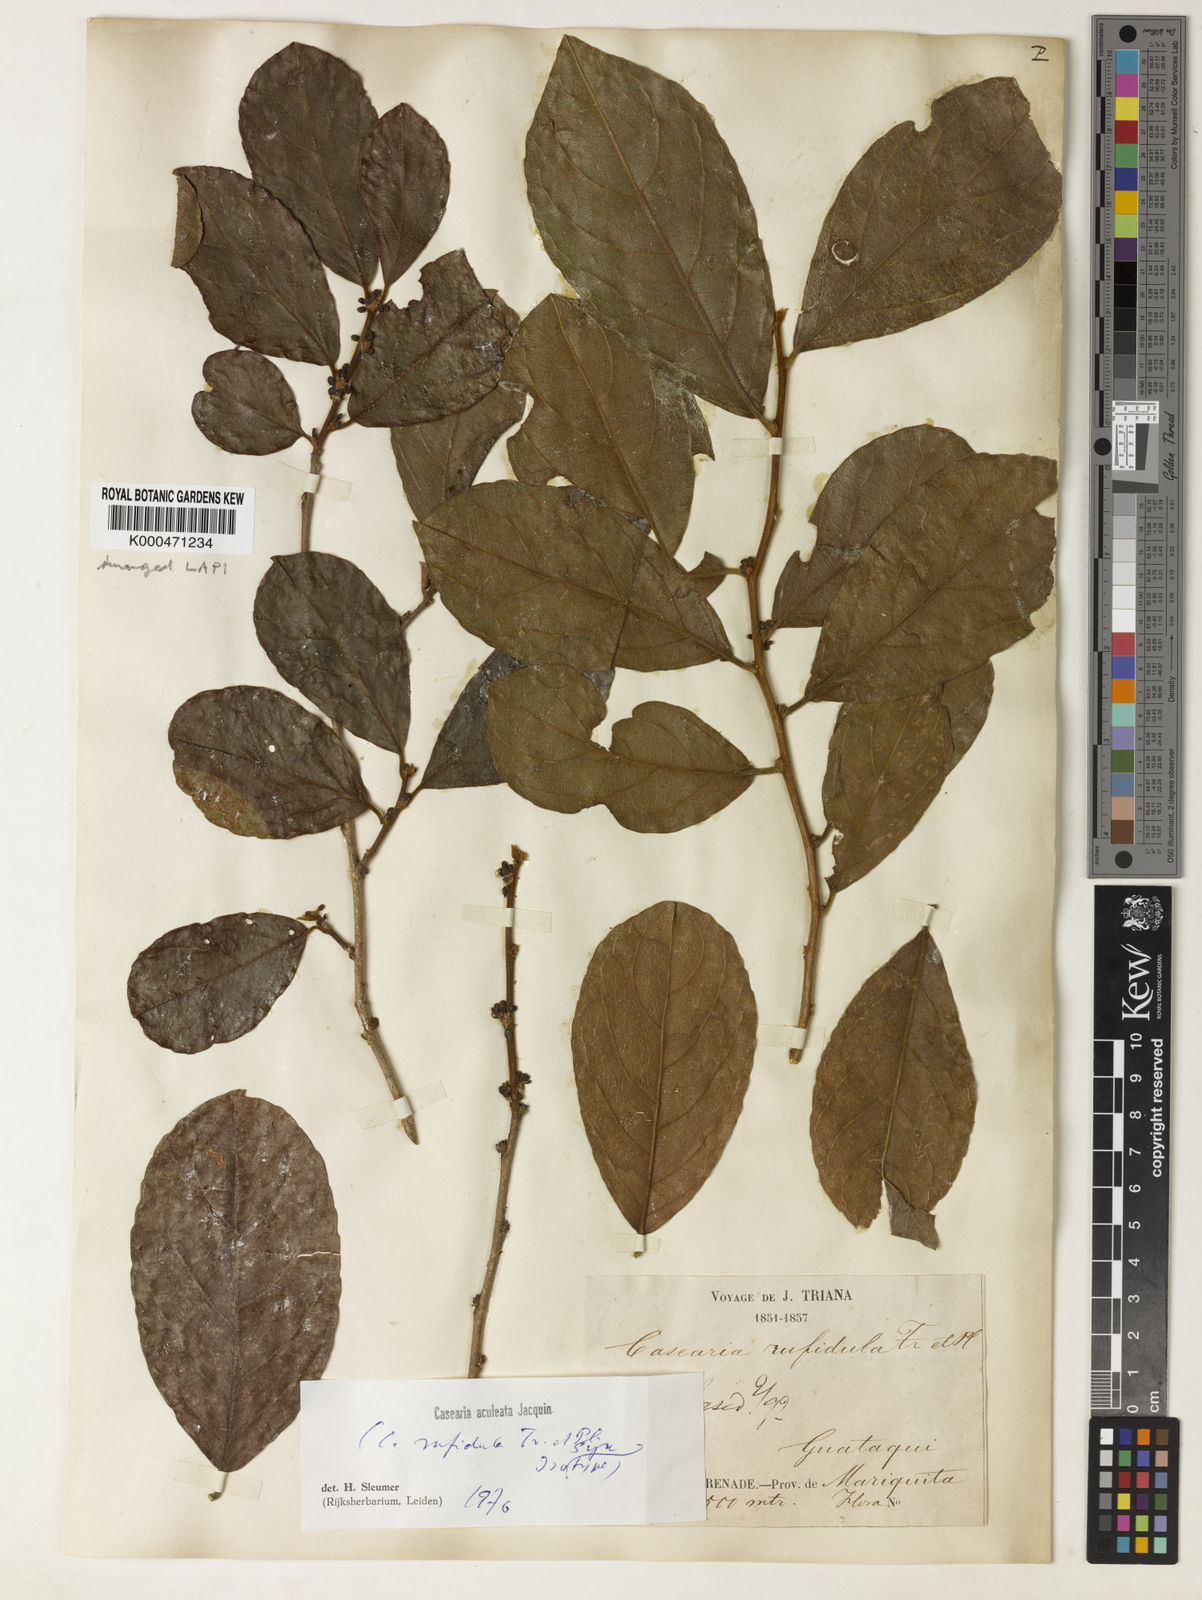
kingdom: Plantae
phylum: Tracheophyta
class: Magnoliopsida
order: Malpighiales
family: Salicaceae
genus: Casearia
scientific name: Casearia aculeata
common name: Cockspur
